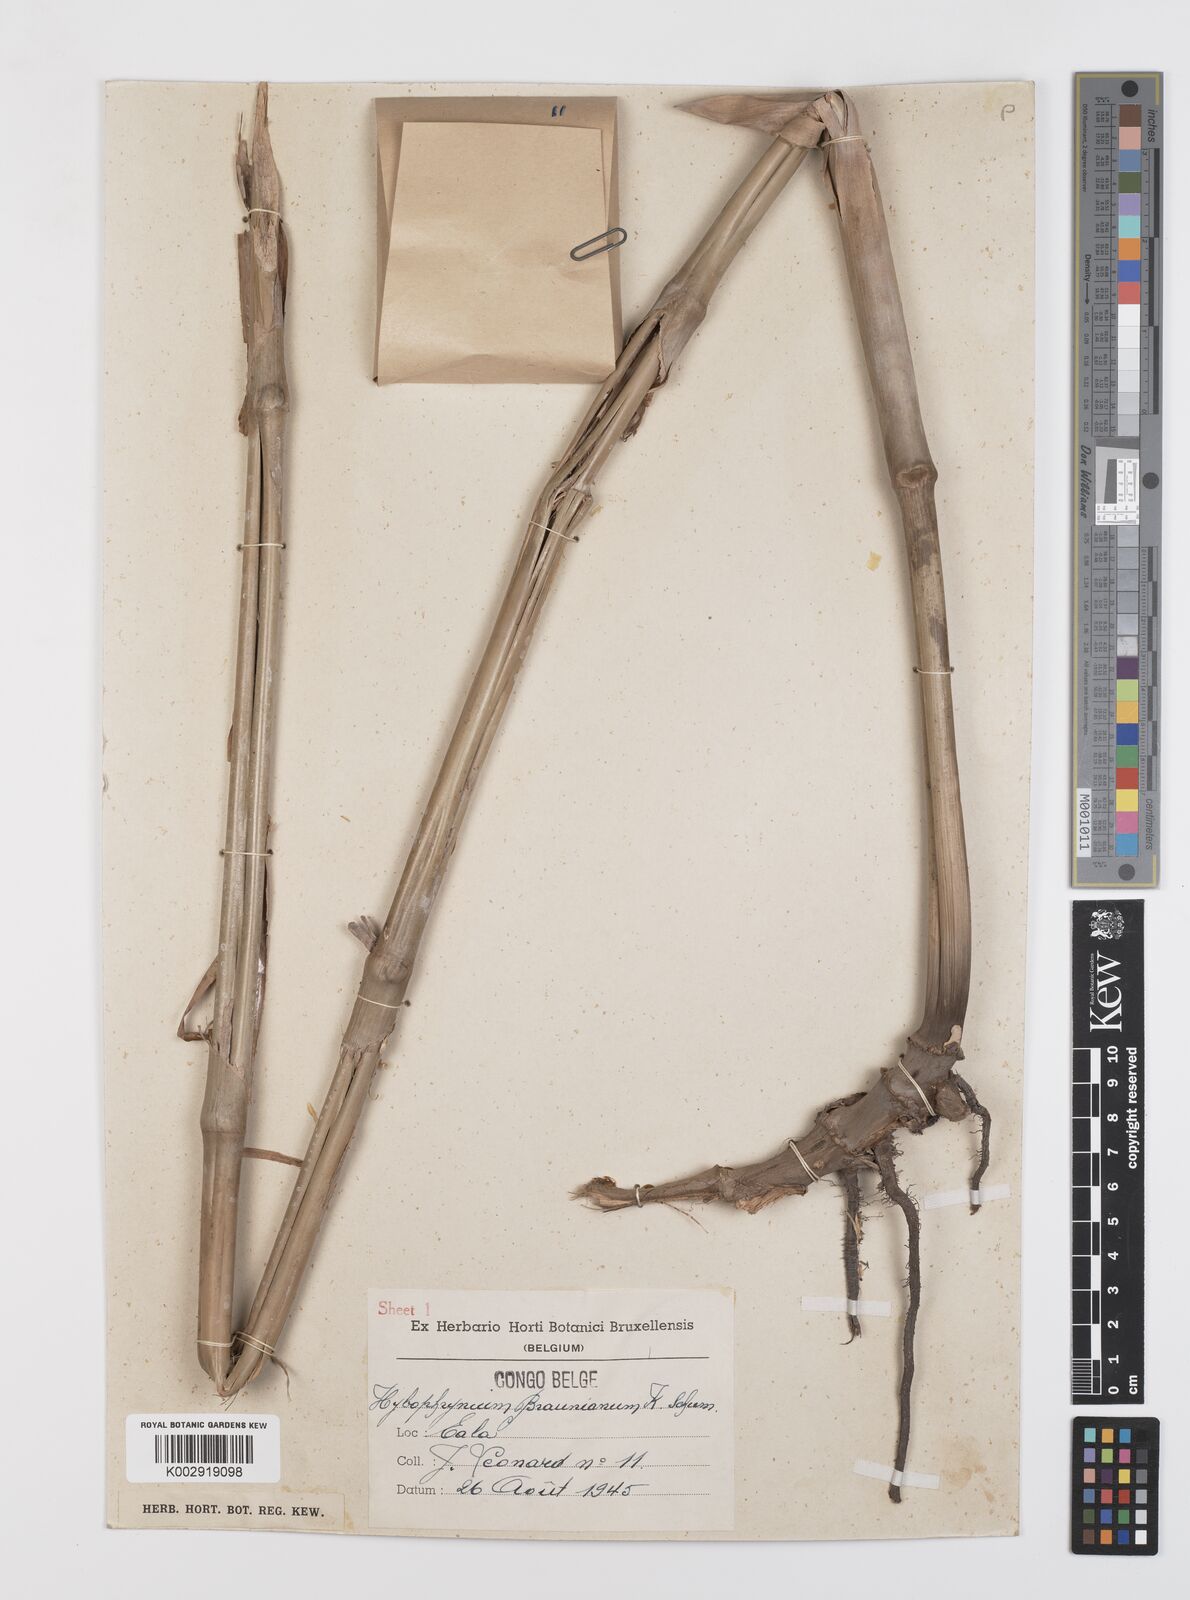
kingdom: Plantae
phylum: Tracheophyta
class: Liliopsida
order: Zingiberales
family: Marantaceae
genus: Trachyphrynium
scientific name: Trachyphrynium braunianum
